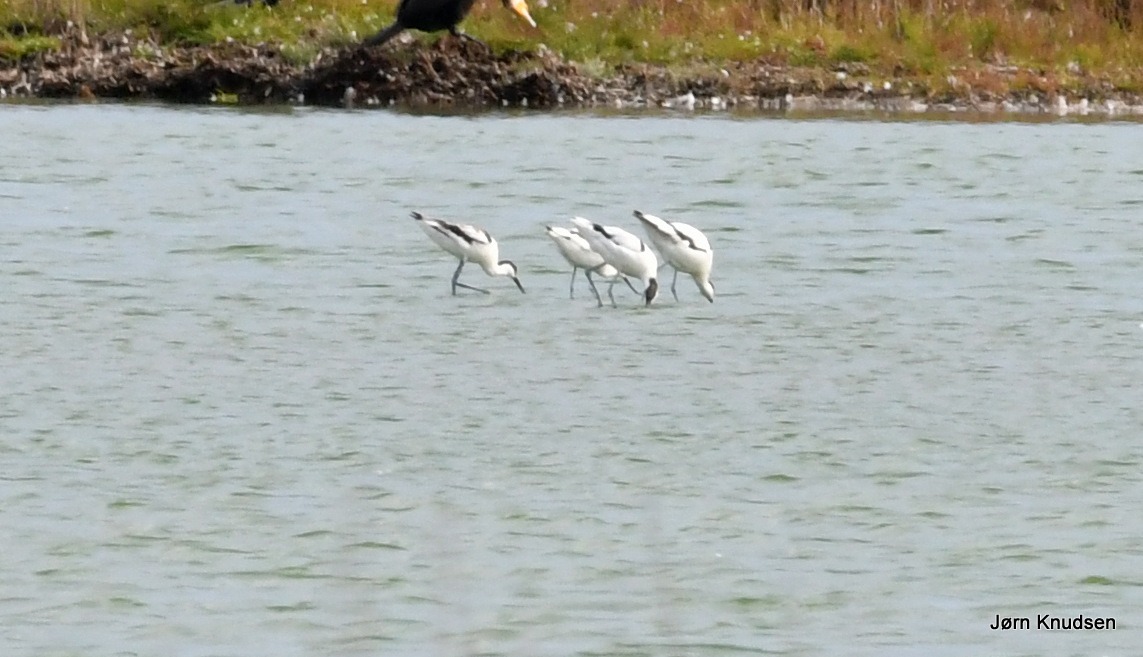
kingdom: Animalia
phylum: Chordata
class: Aves
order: Charadriiformes
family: Recurvirostridae
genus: Recurvirostra
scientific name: Recurvirostra avosetta
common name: Klyde
